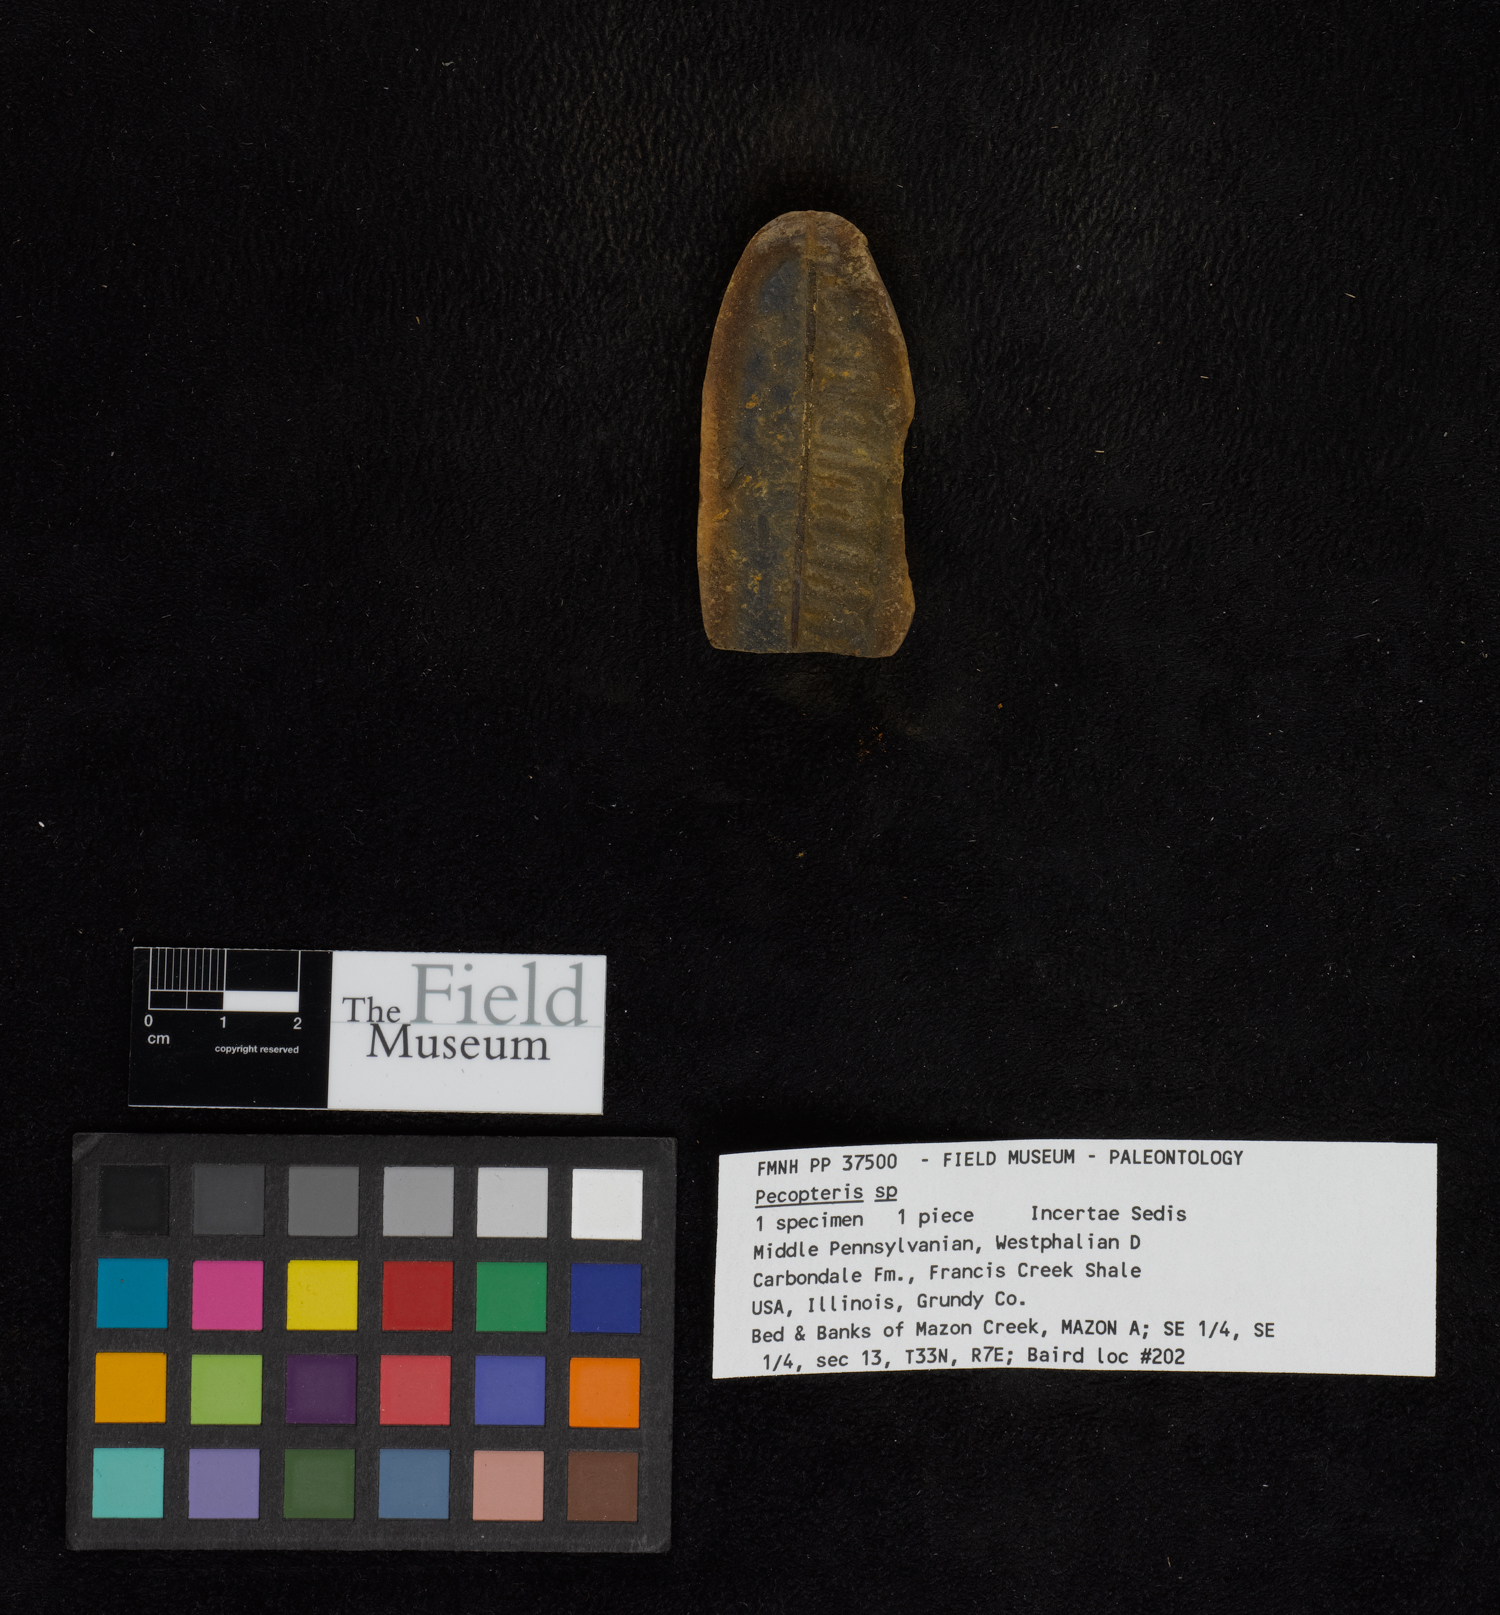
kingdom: Plantae
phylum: Tracheophyta
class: Polypodiopsida
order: Marattiales
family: Asterothecaceae
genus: Pecopteris
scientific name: Pecopteris
